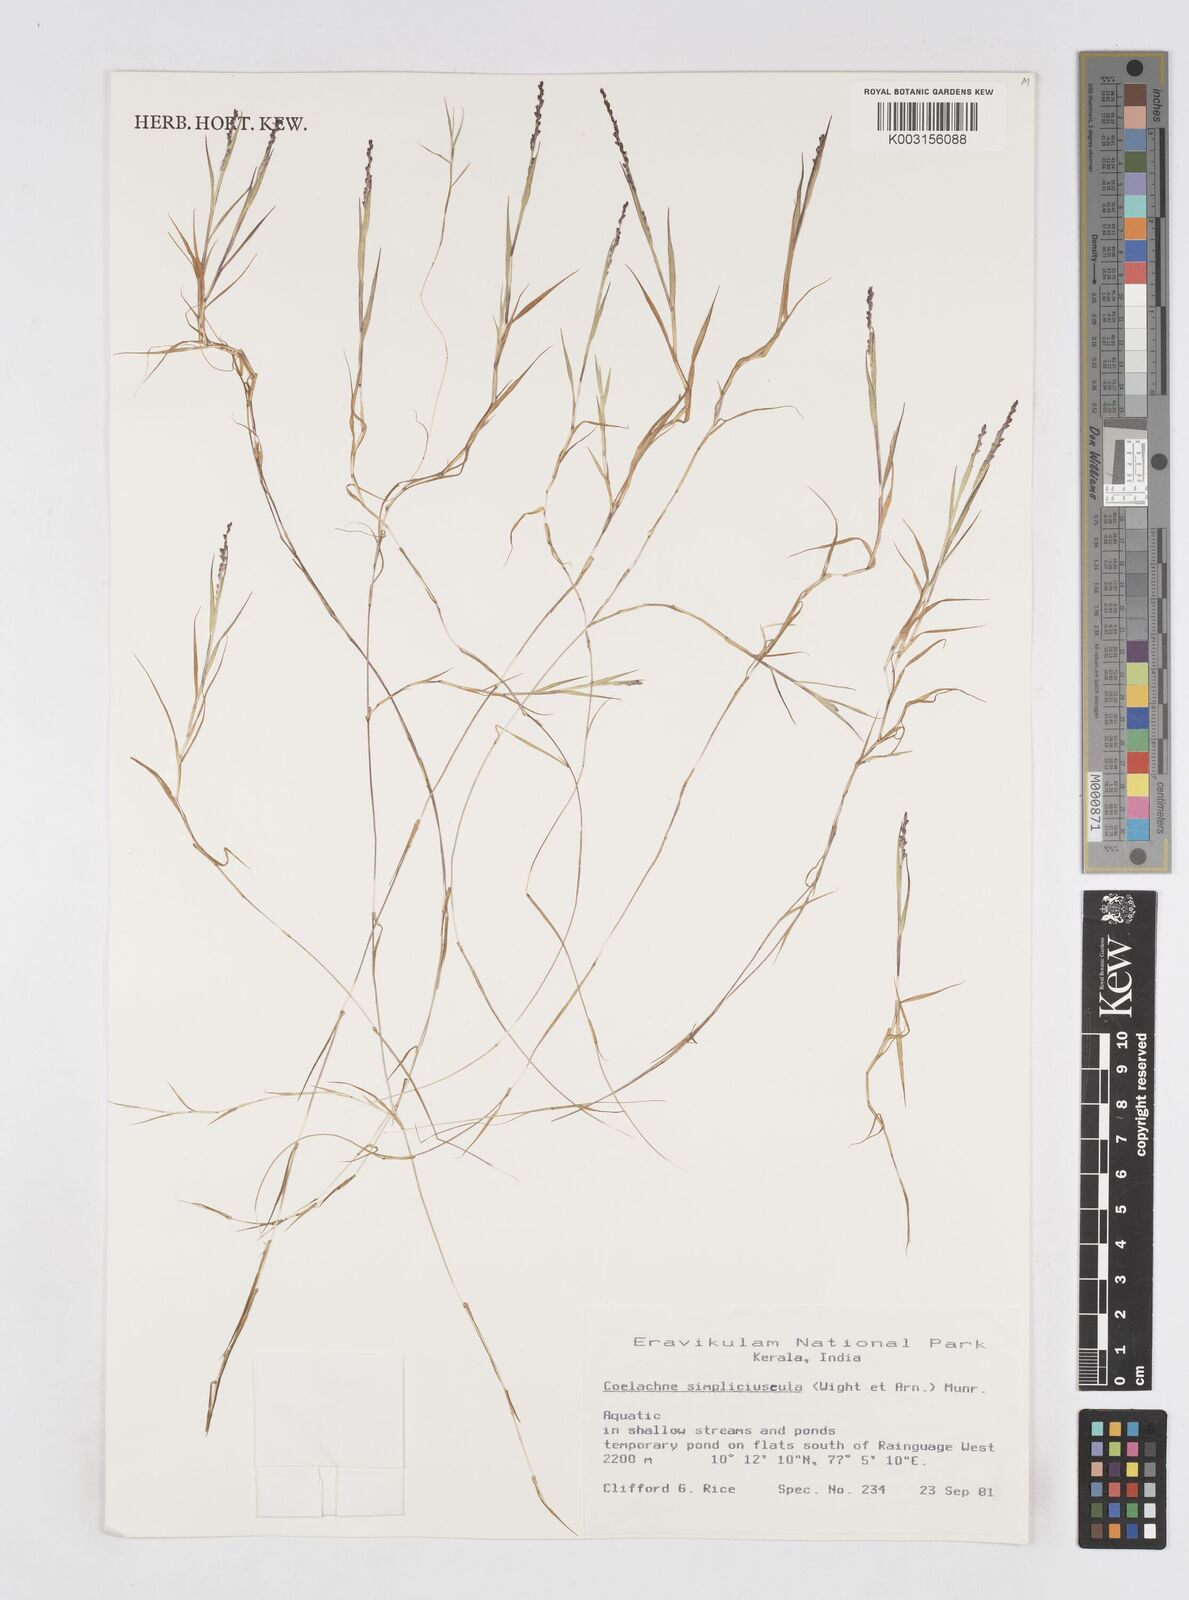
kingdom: Plantae
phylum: Tracheophyta
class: Liliopsida
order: Poales
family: Poaceae
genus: Coelachne
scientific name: Coelachne simpliciuscula
